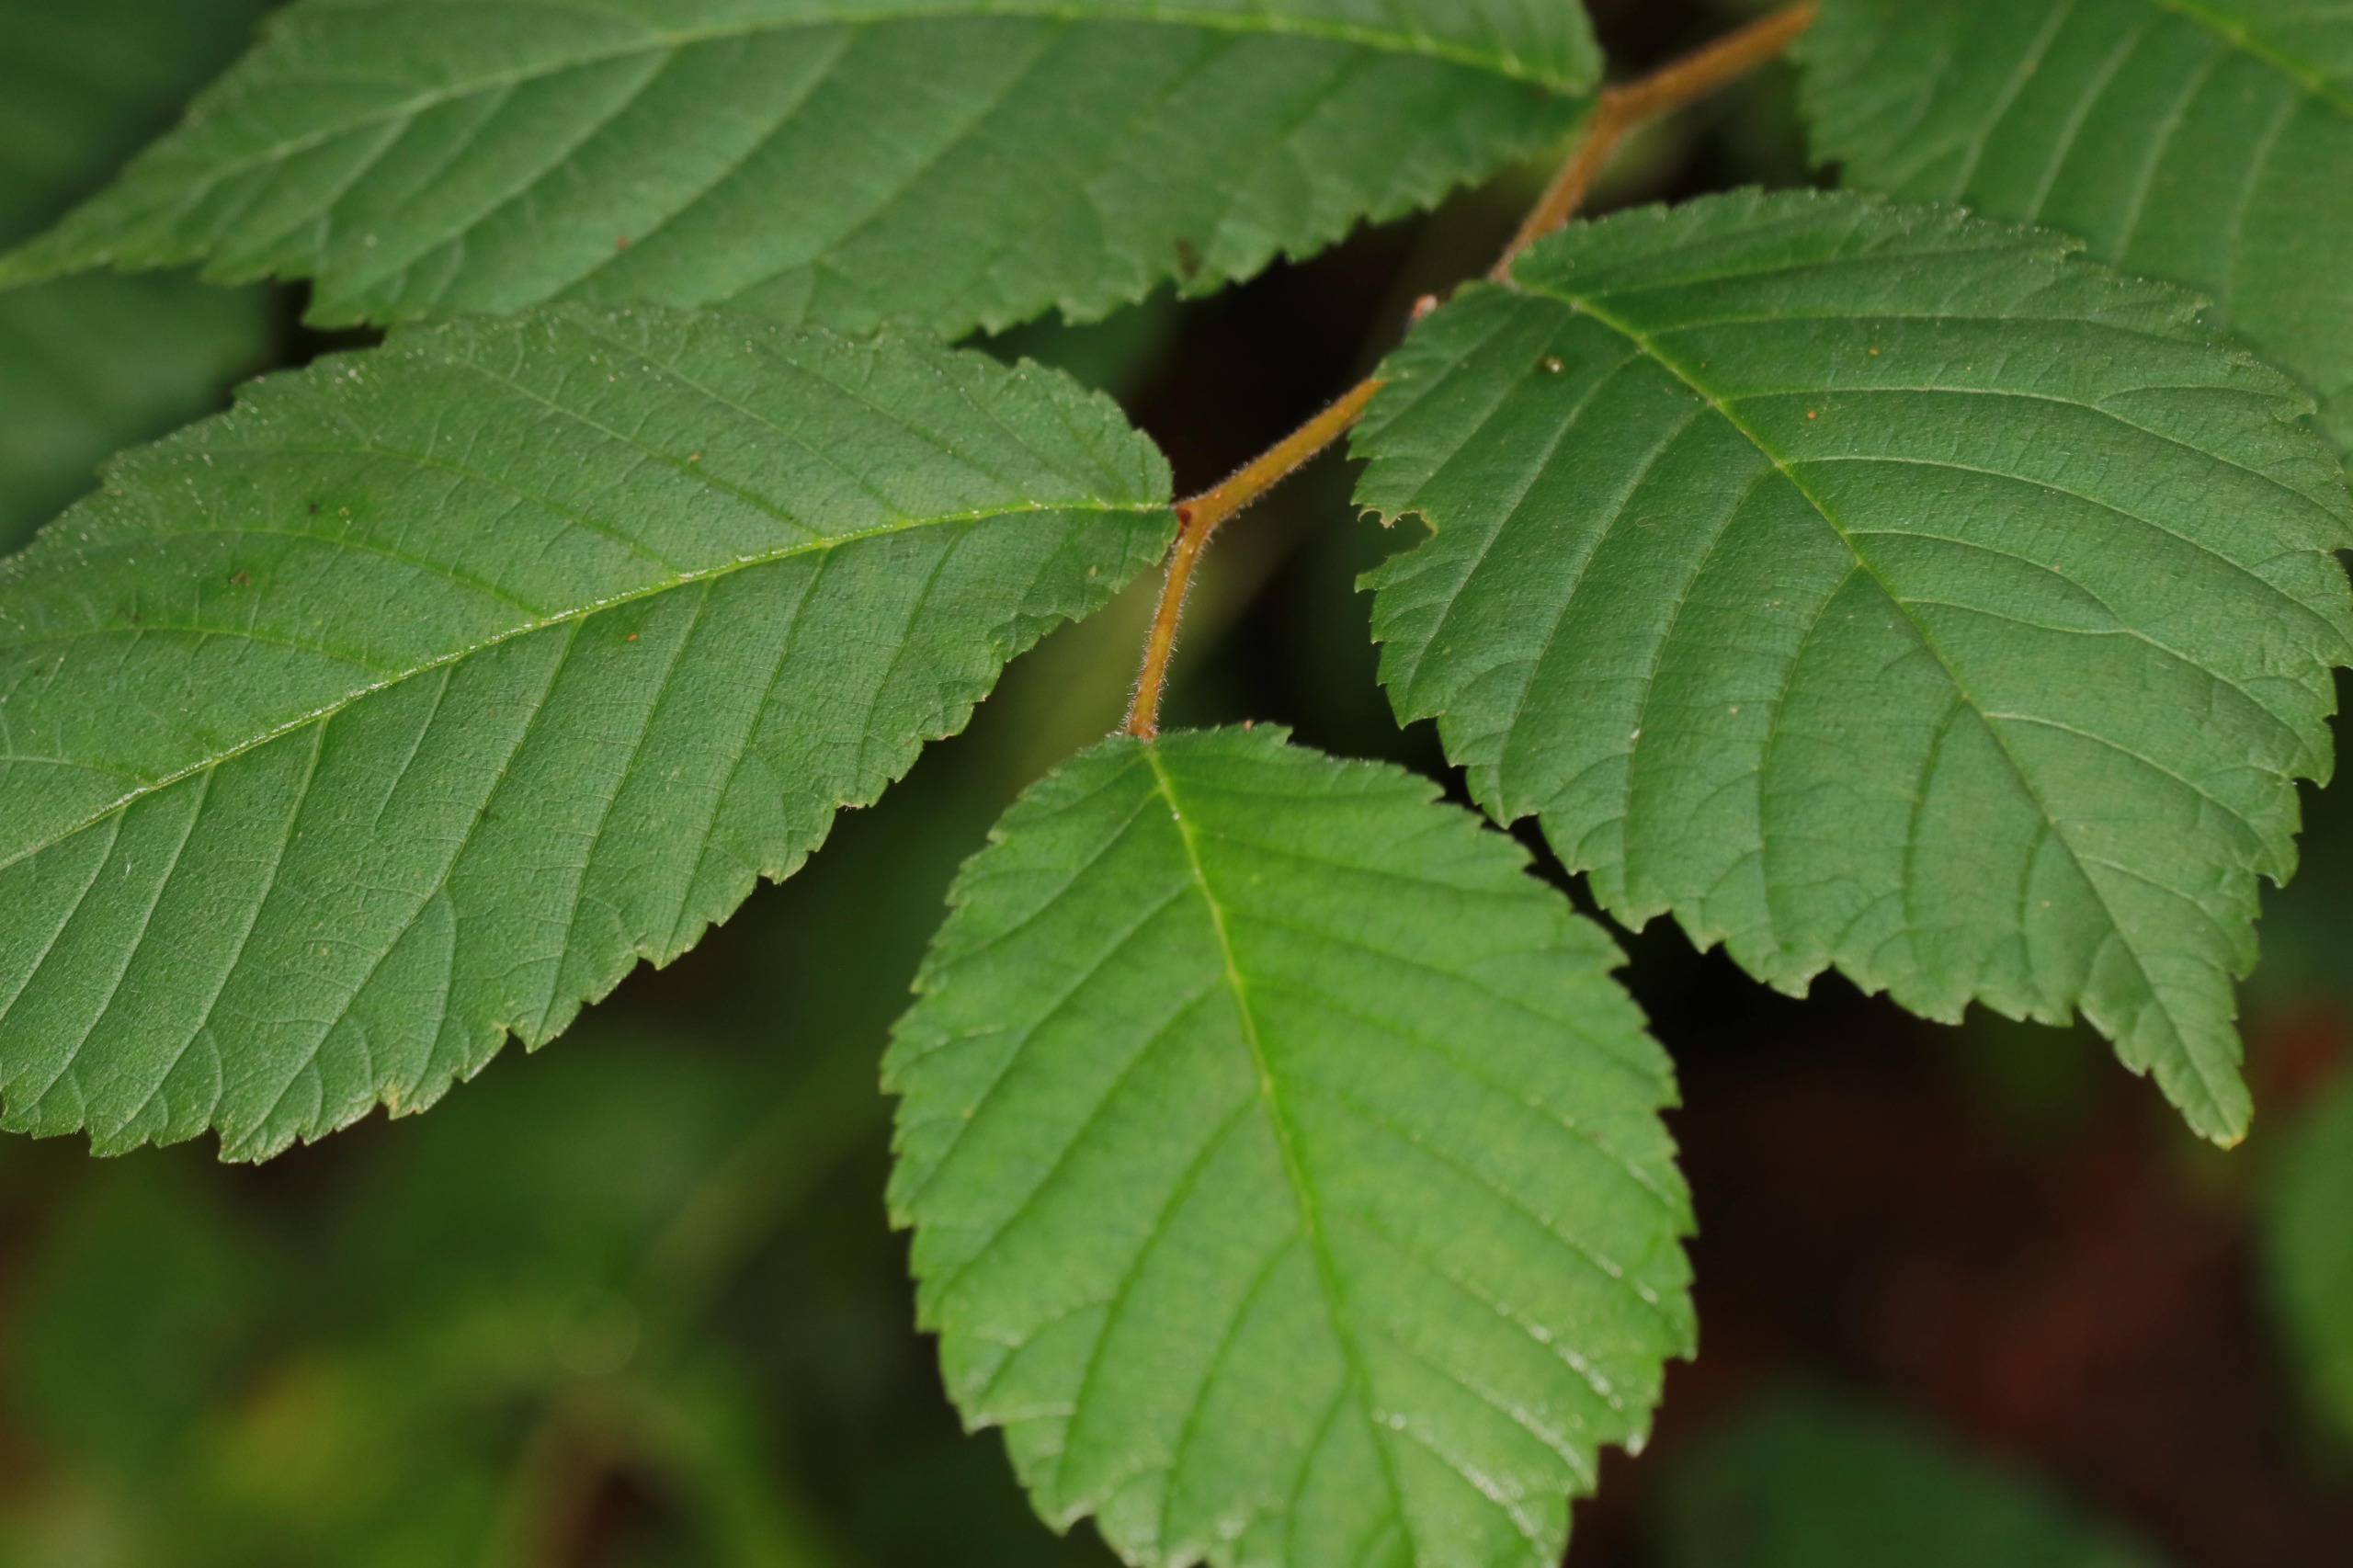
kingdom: Plantae
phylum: Tracheophyta
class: Magnoliopsida
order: Rosales
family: Ulmaceae
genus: Ulmus
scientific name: Ulmus glabra
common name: Skov-elm/storbladet elm
